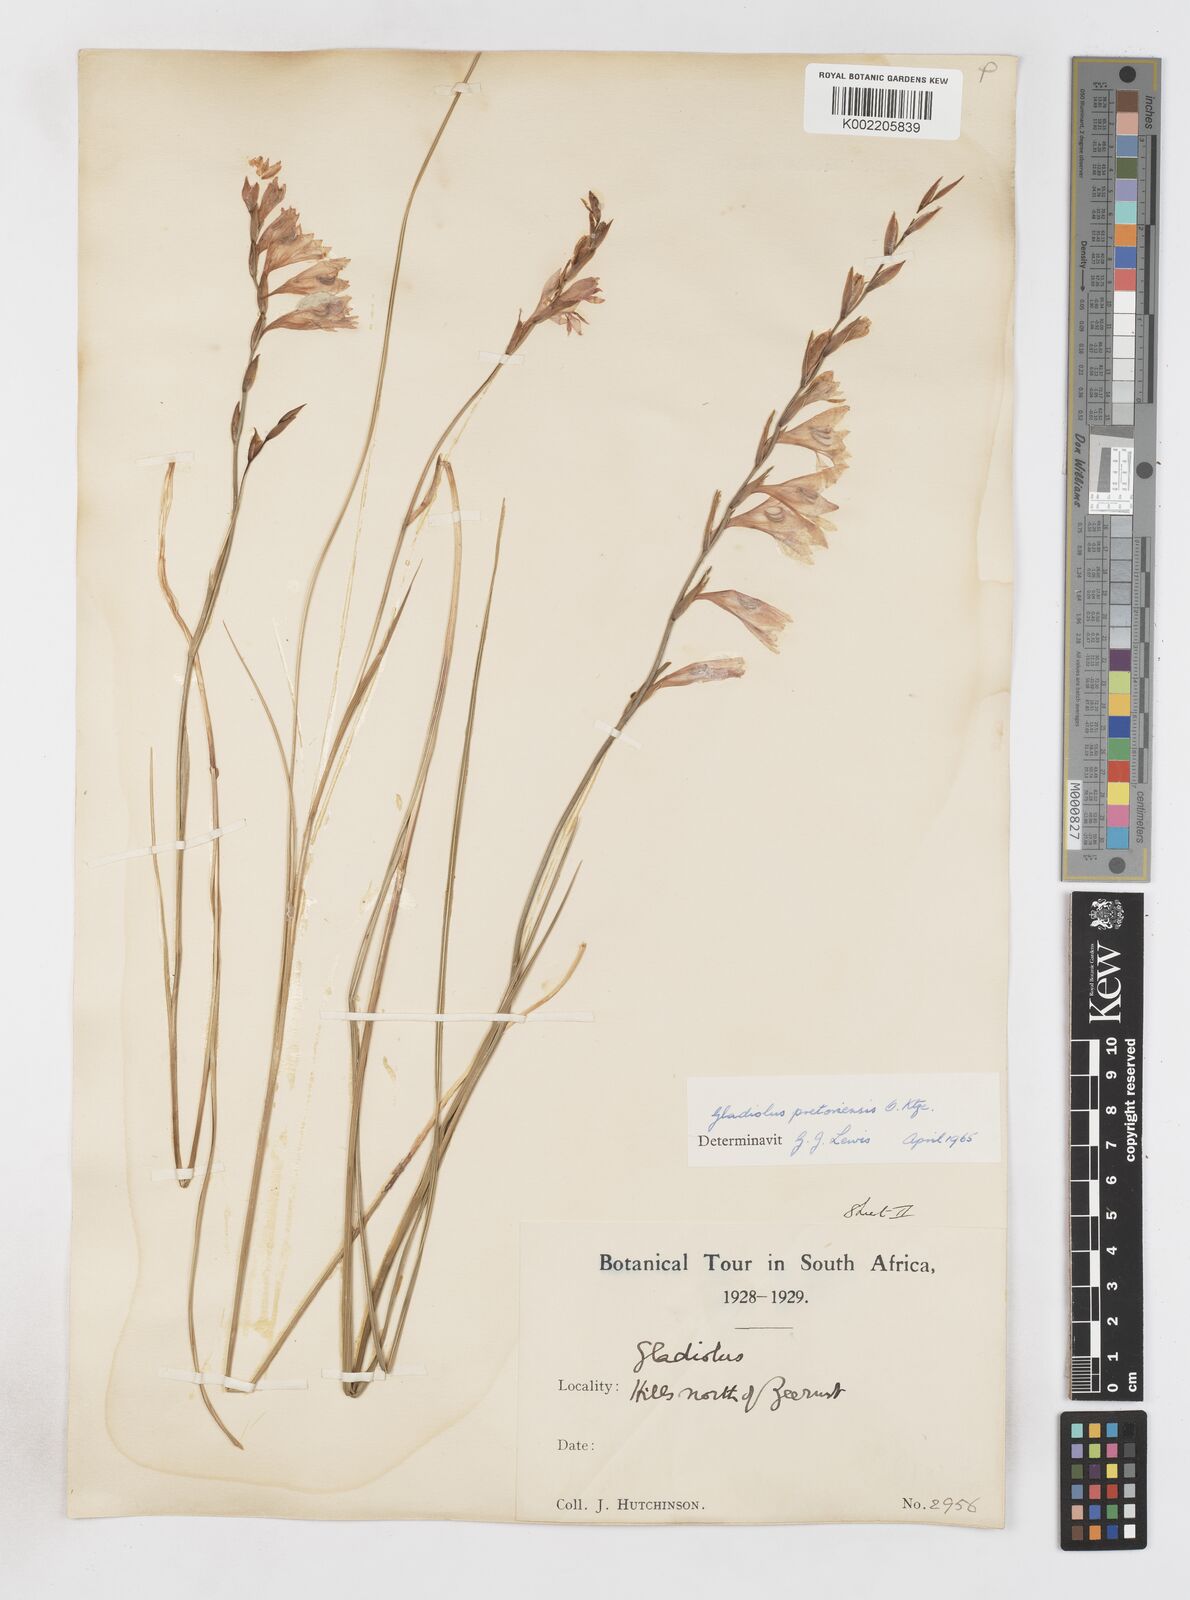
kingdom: Plantae
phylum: Tracheophyta
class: Liliopsida
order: Asparagales
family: Iridaceae
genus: Gladiolus
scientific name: Gladiolus pretoriensis
